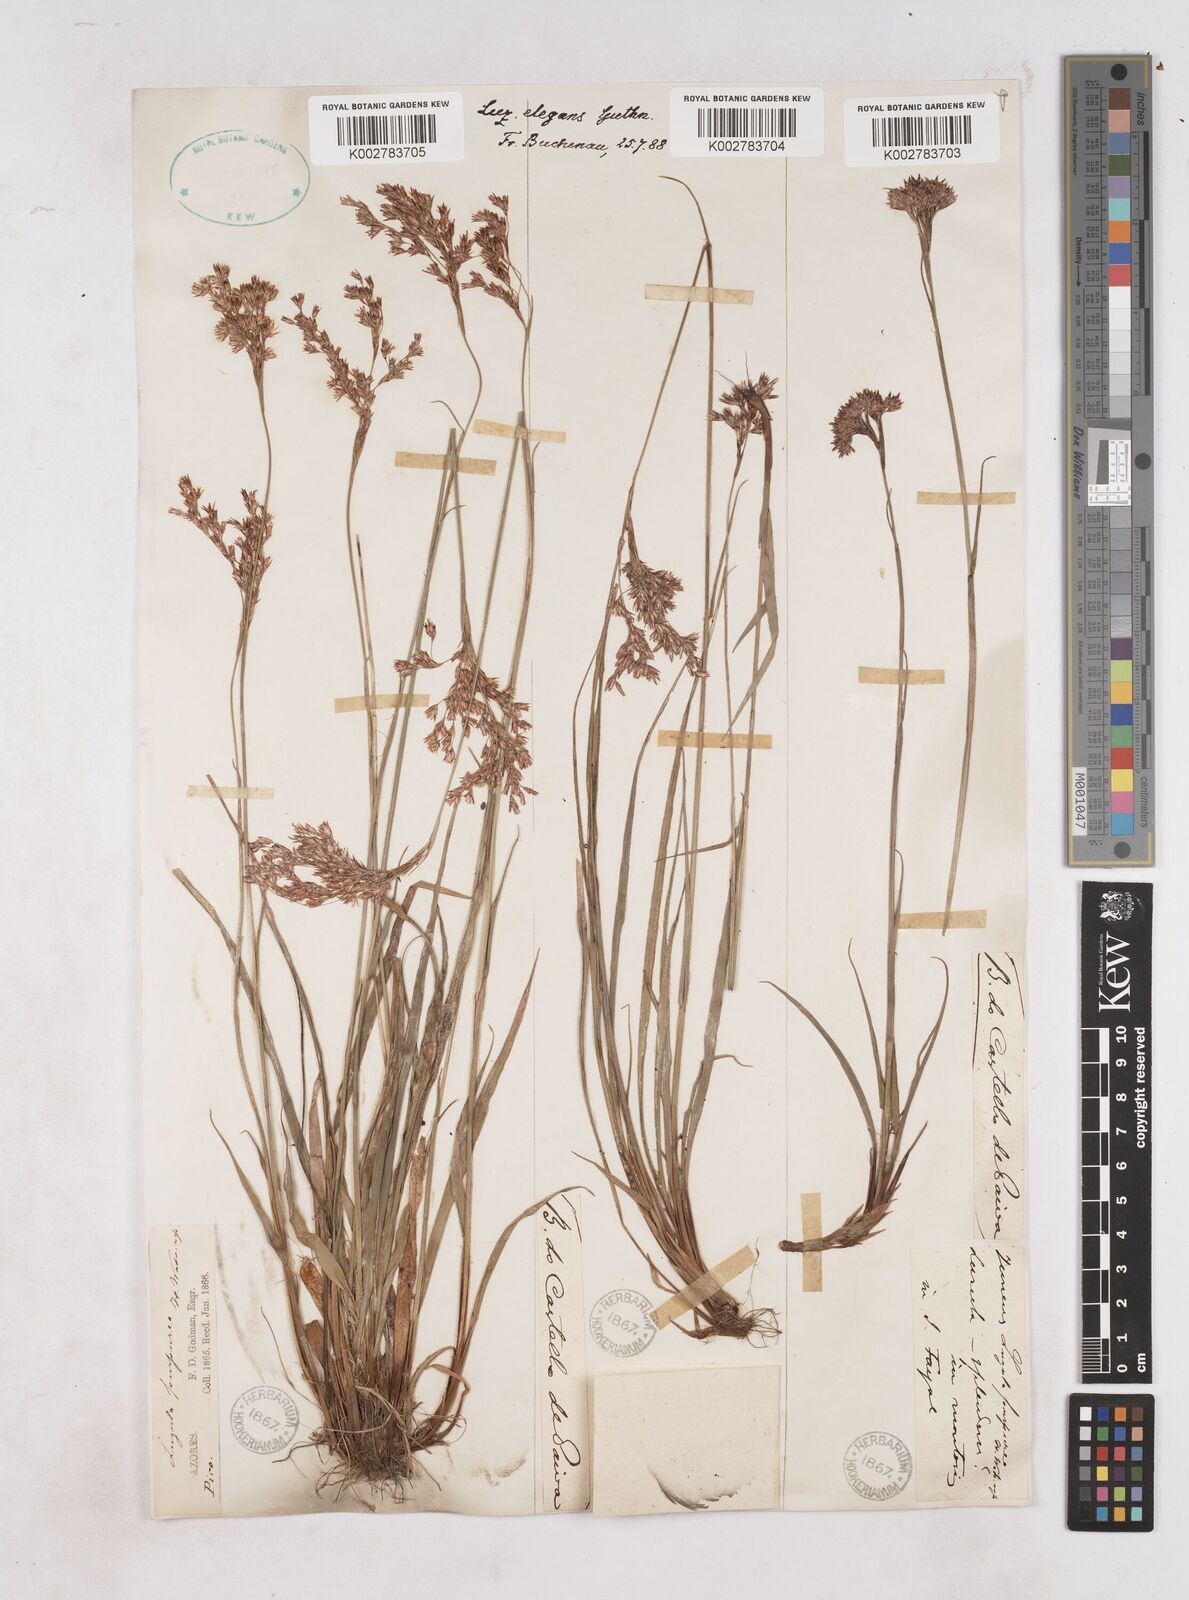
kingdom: Plantae
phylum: Tracheophyta
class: Liliopsida
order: Poales
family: Juncaceae
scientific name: Juncaceae
